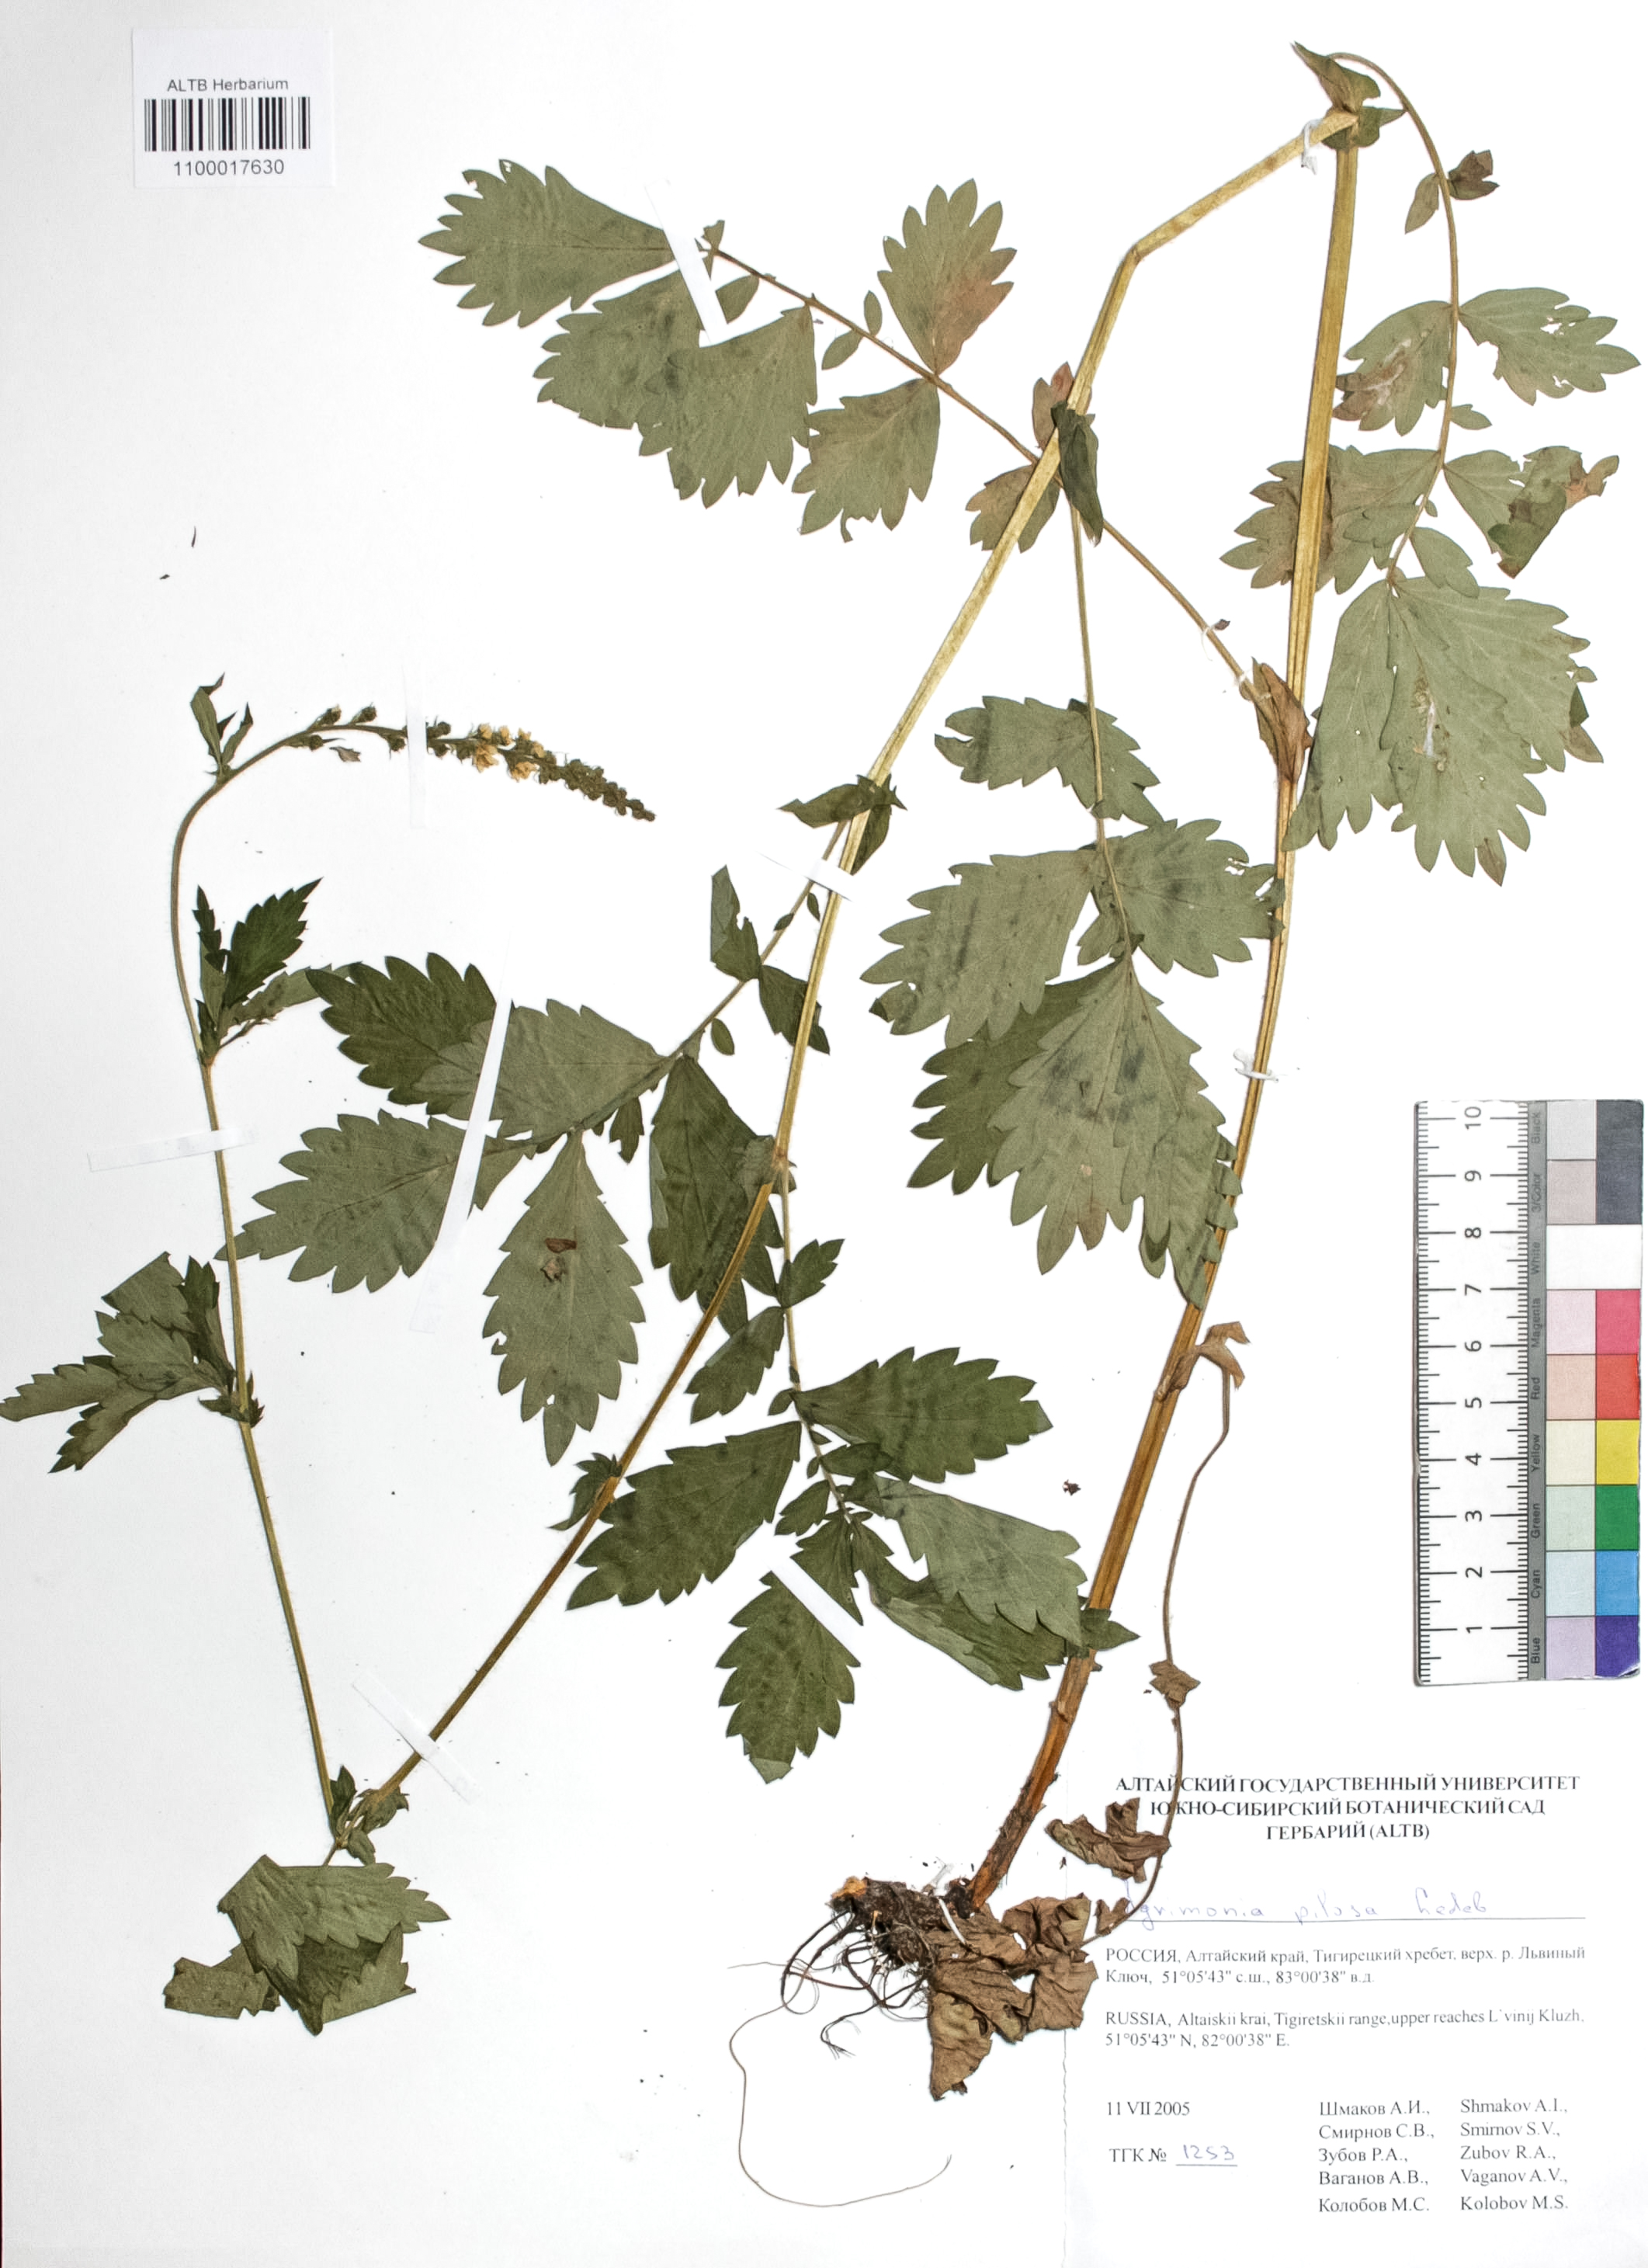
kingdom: Plantae
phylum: Tracheophyta
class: Magnoliopsida
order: Rosales
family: Rosaceae
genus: Agrimonia
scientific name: Agrimonia pilosa
